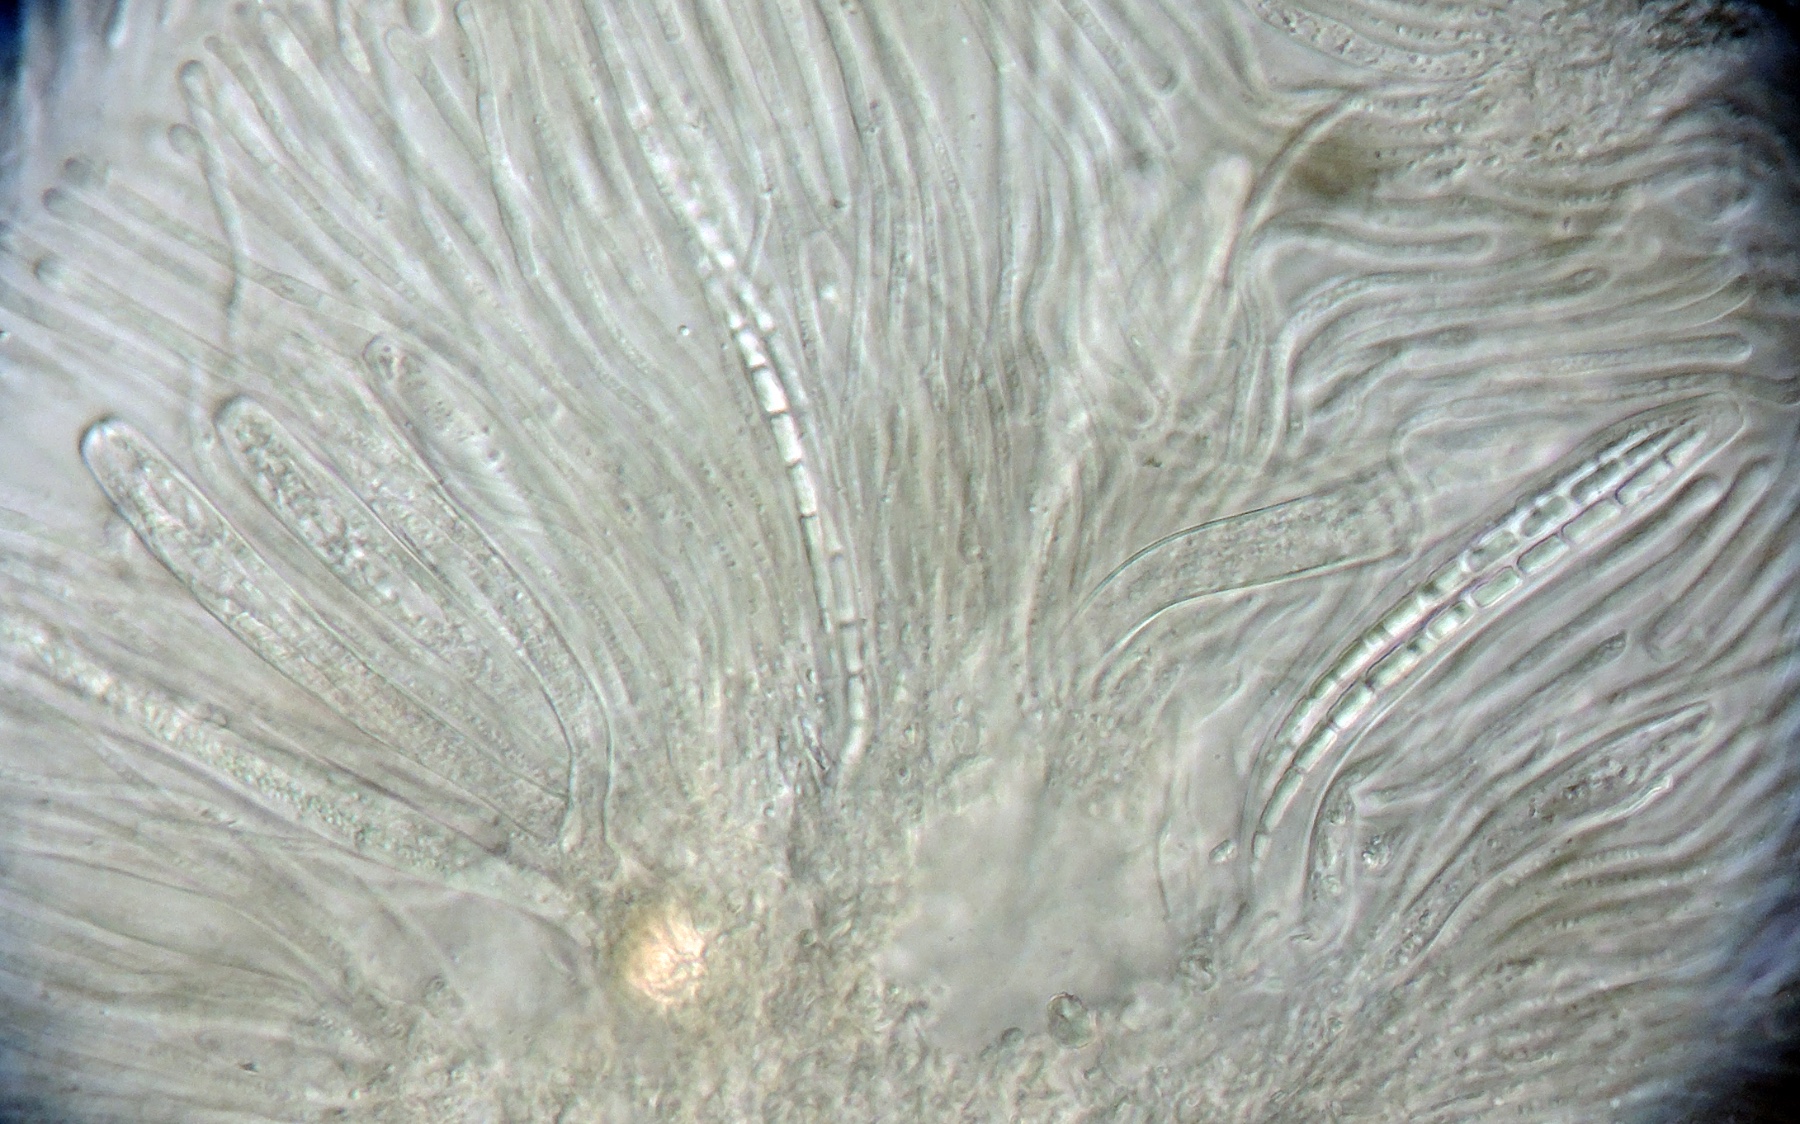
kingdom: Fungi
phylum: Ascomycota
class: Leotiomycetes
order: Rhytismatales
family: Rhytismataceae
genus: Therrya
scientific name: Therrya fuckelii
